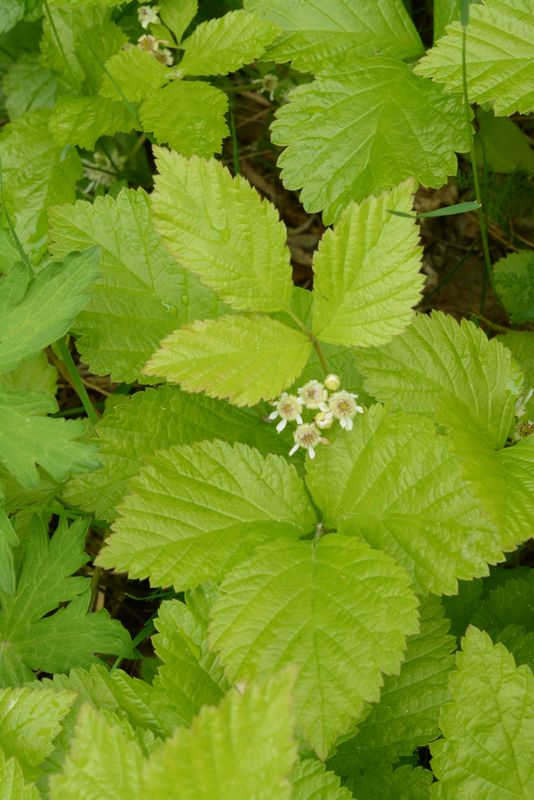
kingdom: Plantae
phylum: Tracheophyta
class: Magnoliopsida
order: Rosales
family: Rosaceae
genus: Rubus
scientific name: Rubus saxatilis
